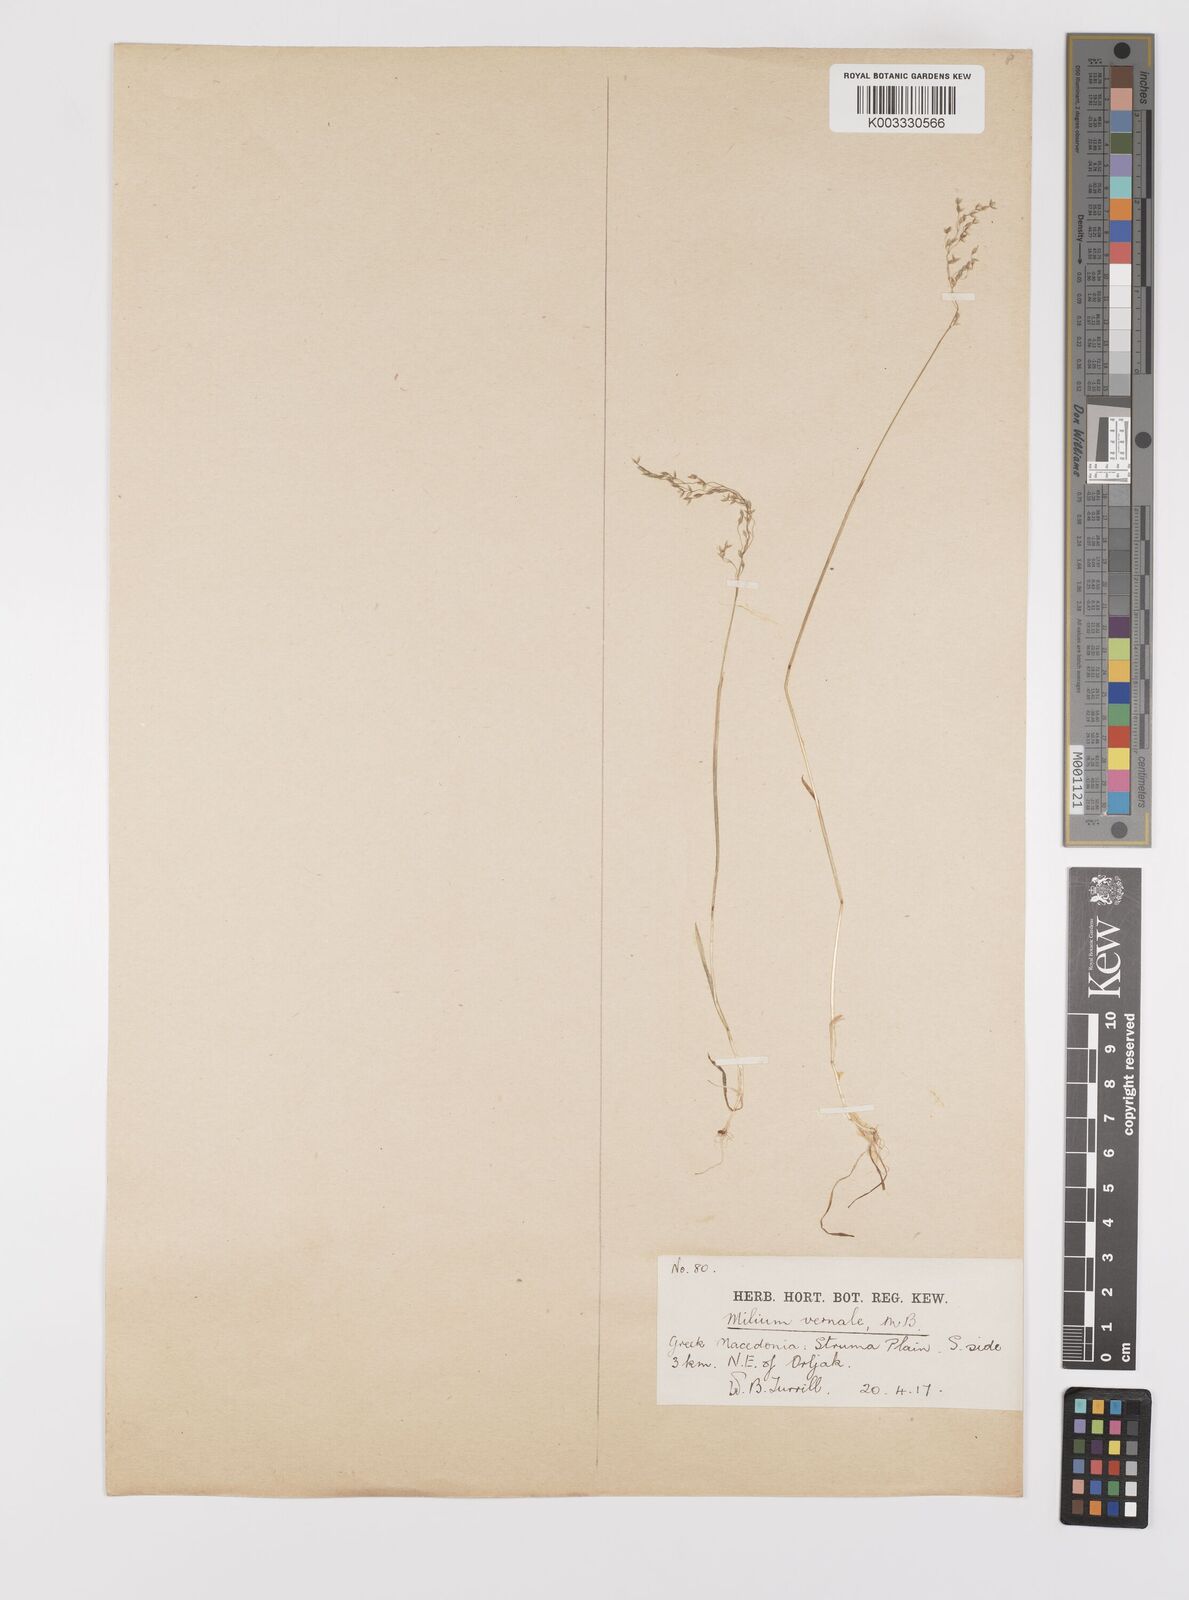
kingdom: Plantae
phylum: Tracheophyta
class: Liliopsida
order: Poales
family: Poaceae
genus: Milium
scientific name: Milium vernale
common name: Early millet
